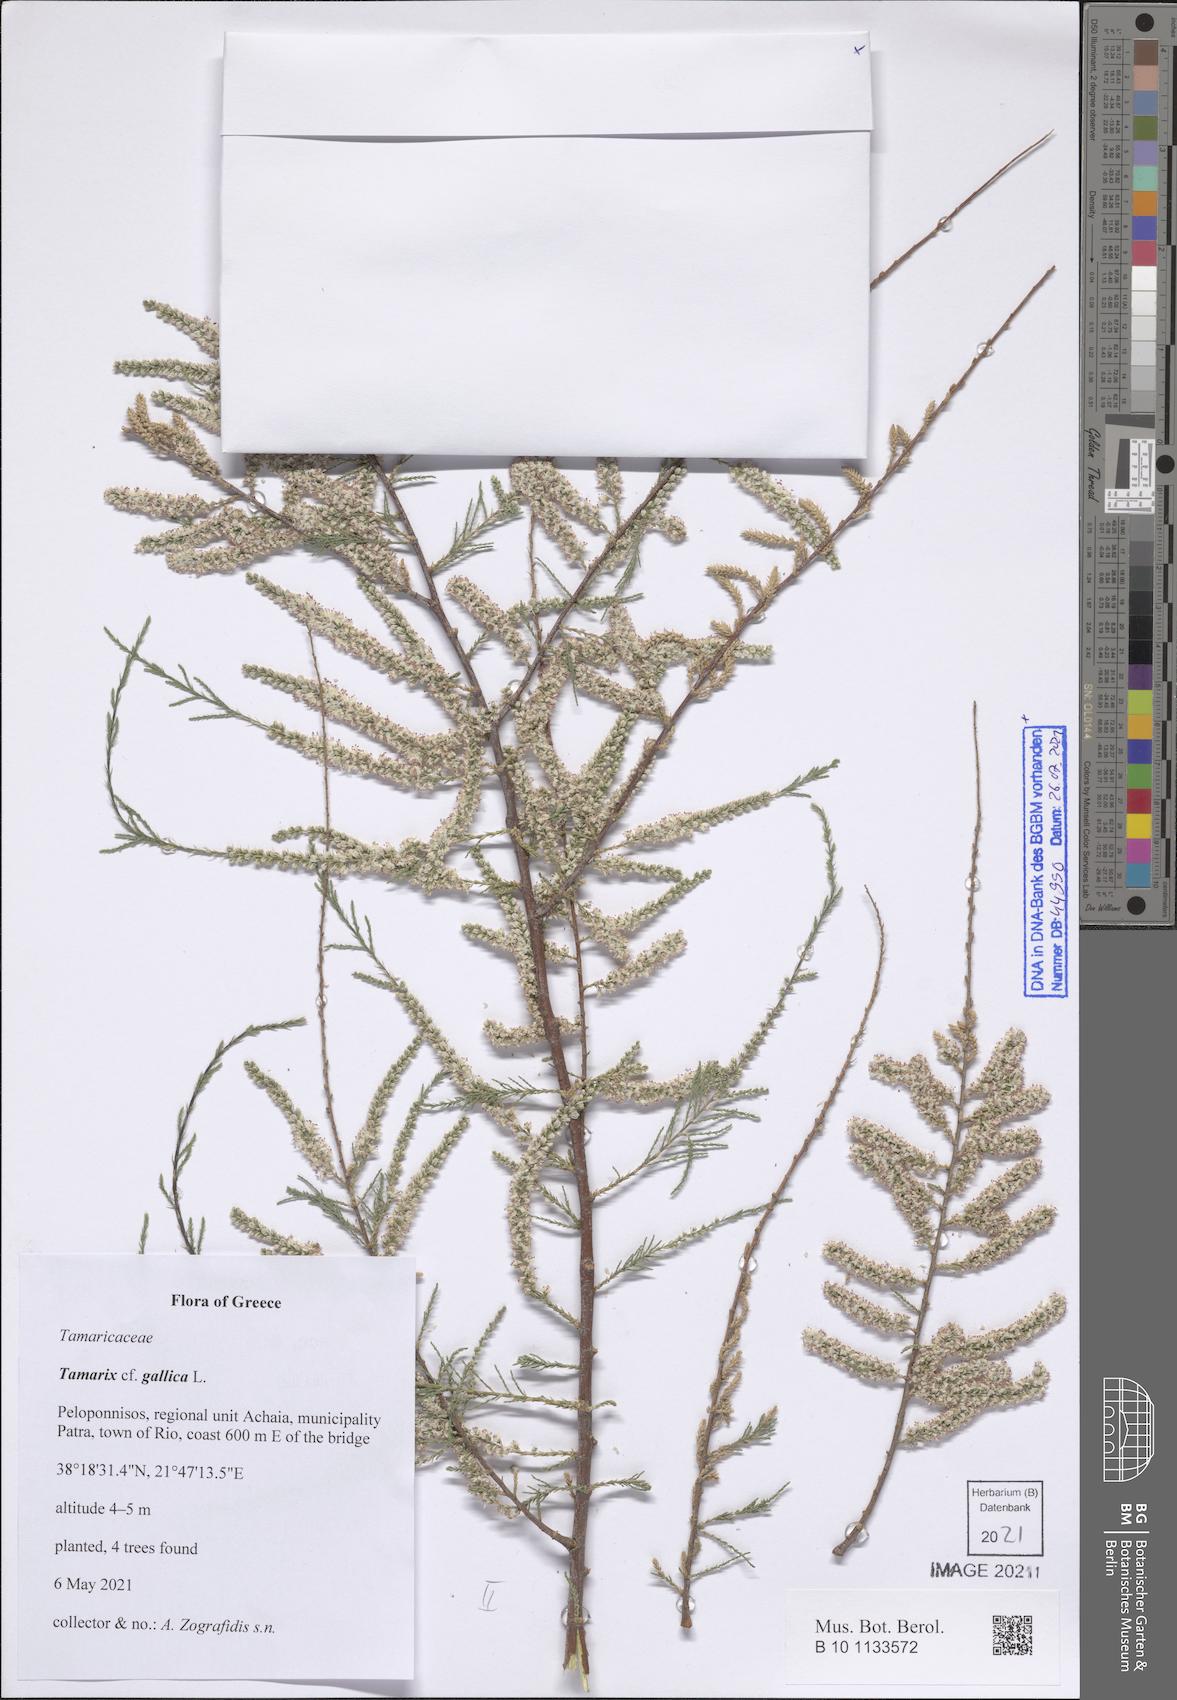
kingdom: Plantae
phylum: Tracheophyta
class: Magnoliopsida
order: Caryophyllales
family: Tamaricaceae
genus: Tamarix
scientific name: Tamarix gallica
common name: Tamarisk
